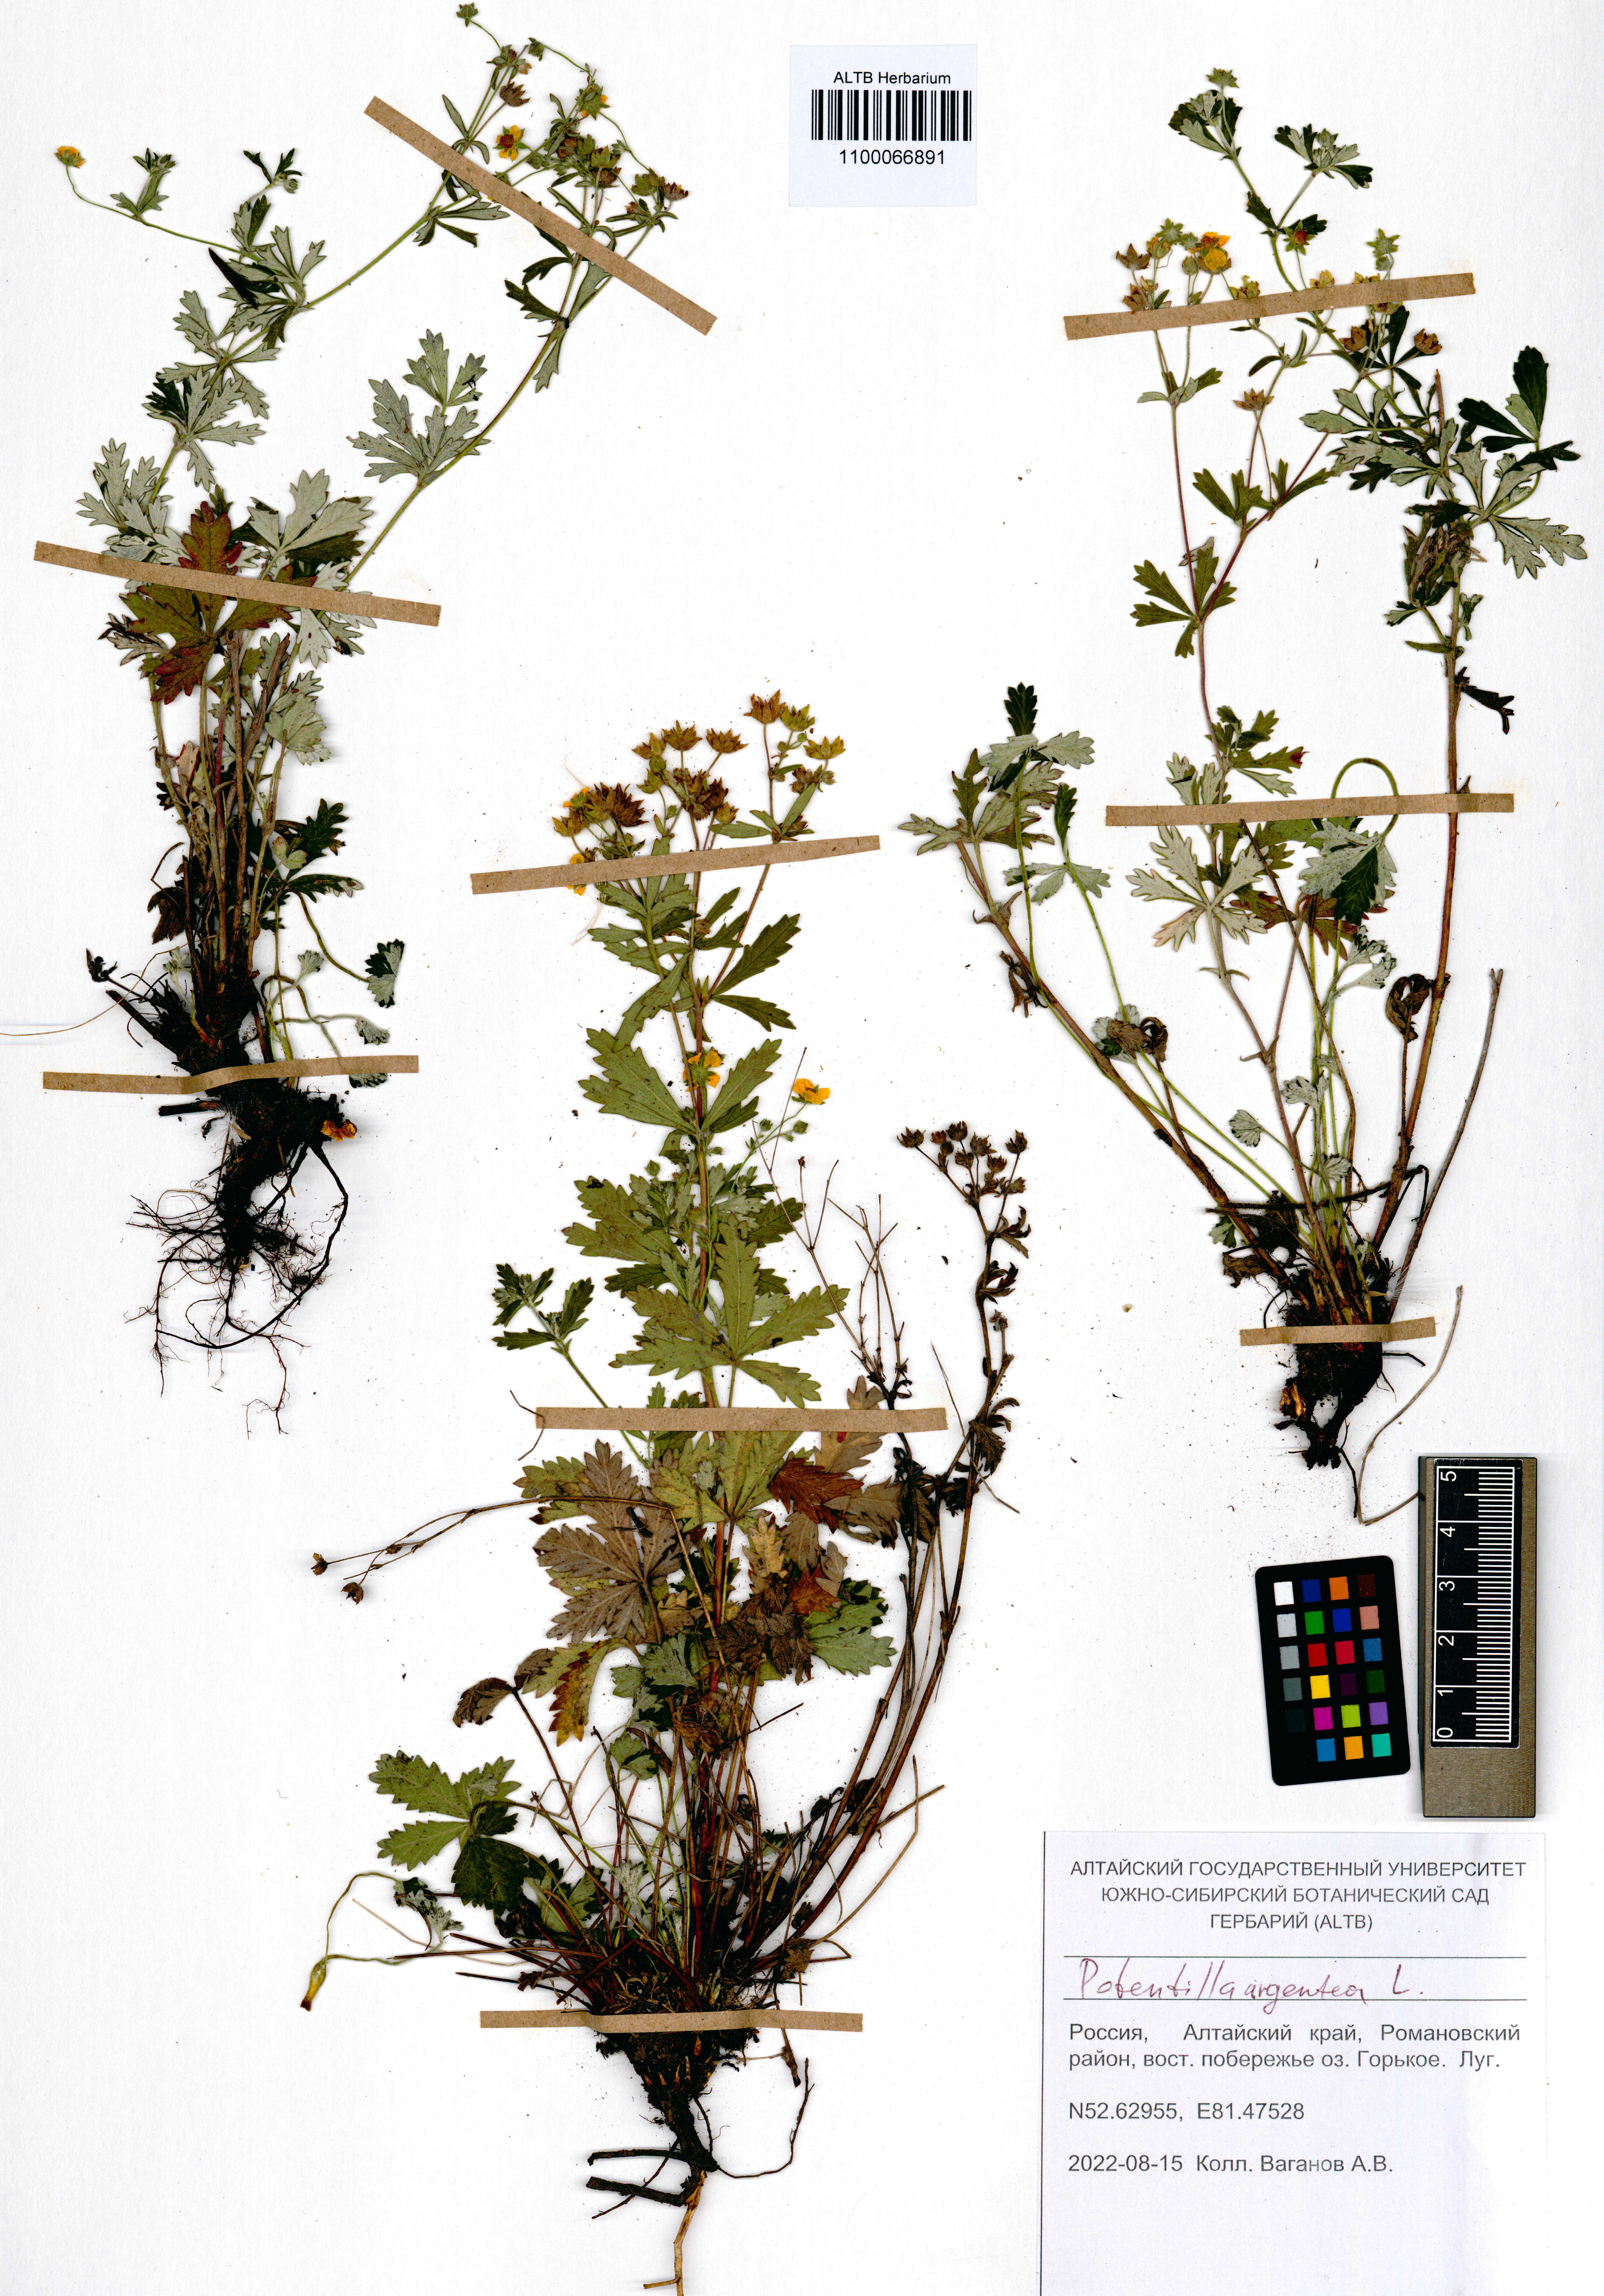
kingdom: Plantae
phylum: Tracheophyta
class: Magnoliopsida
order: Rosales
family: Rosaceae
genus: Potentilla
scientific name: Potentilla argentea
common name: Hoary cinquefoil
